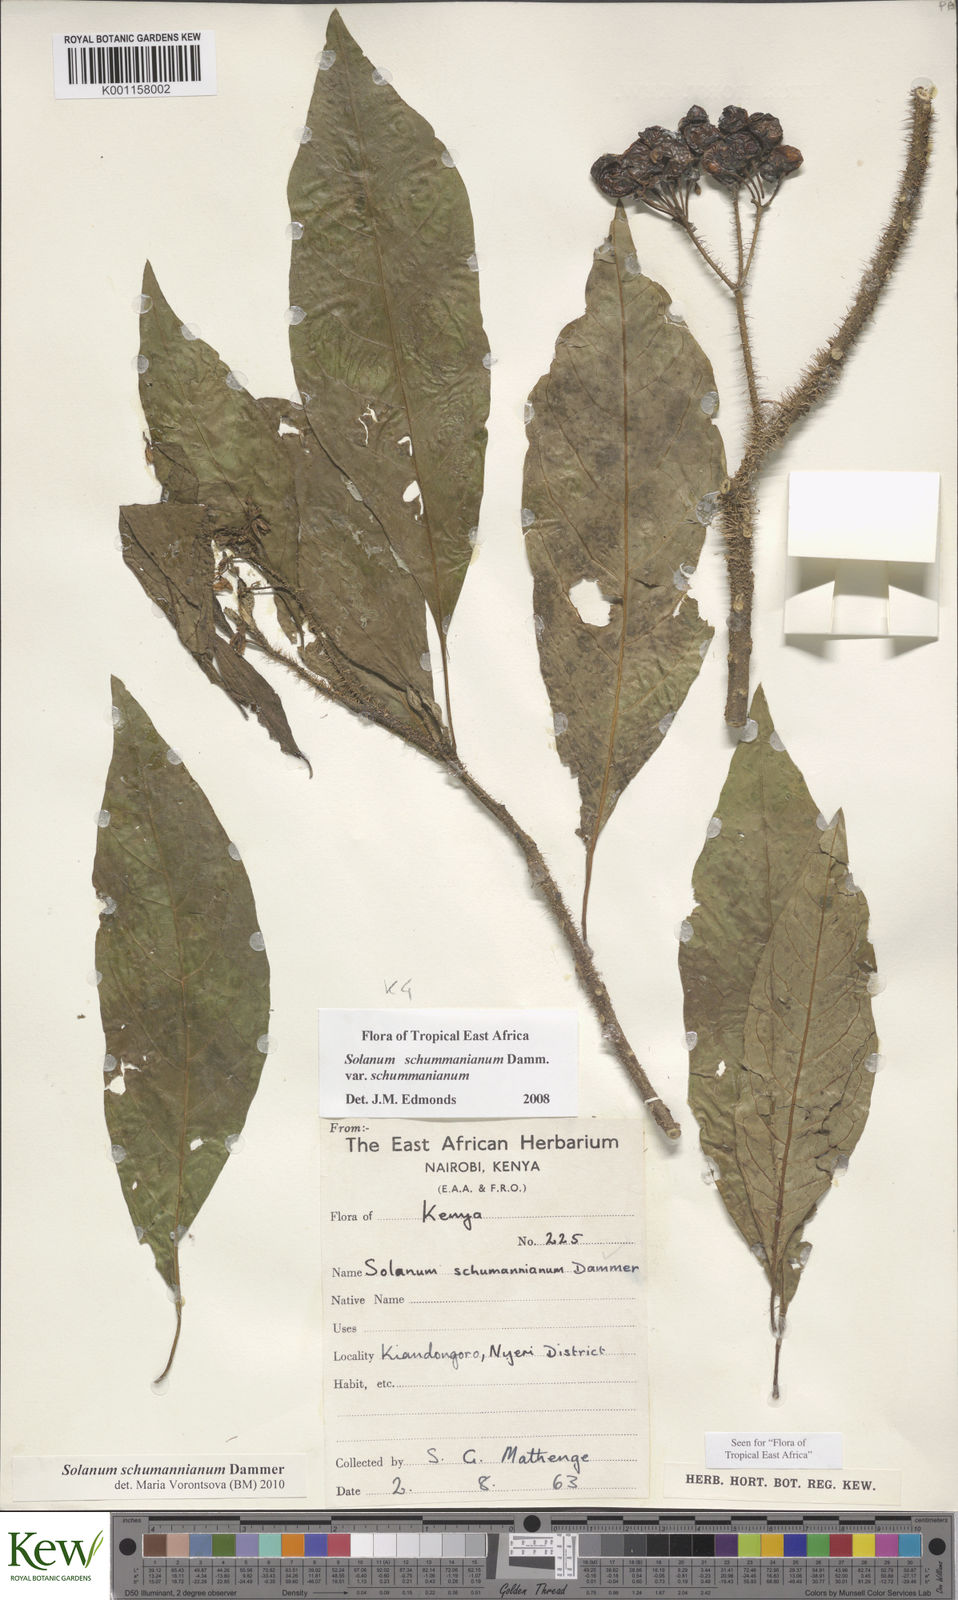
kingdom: Plantae
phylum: Tracheophyta
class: Magnoliopsida
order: Solanales
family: Solanaceae
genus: Solanum
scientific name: Solanum schumannianum
